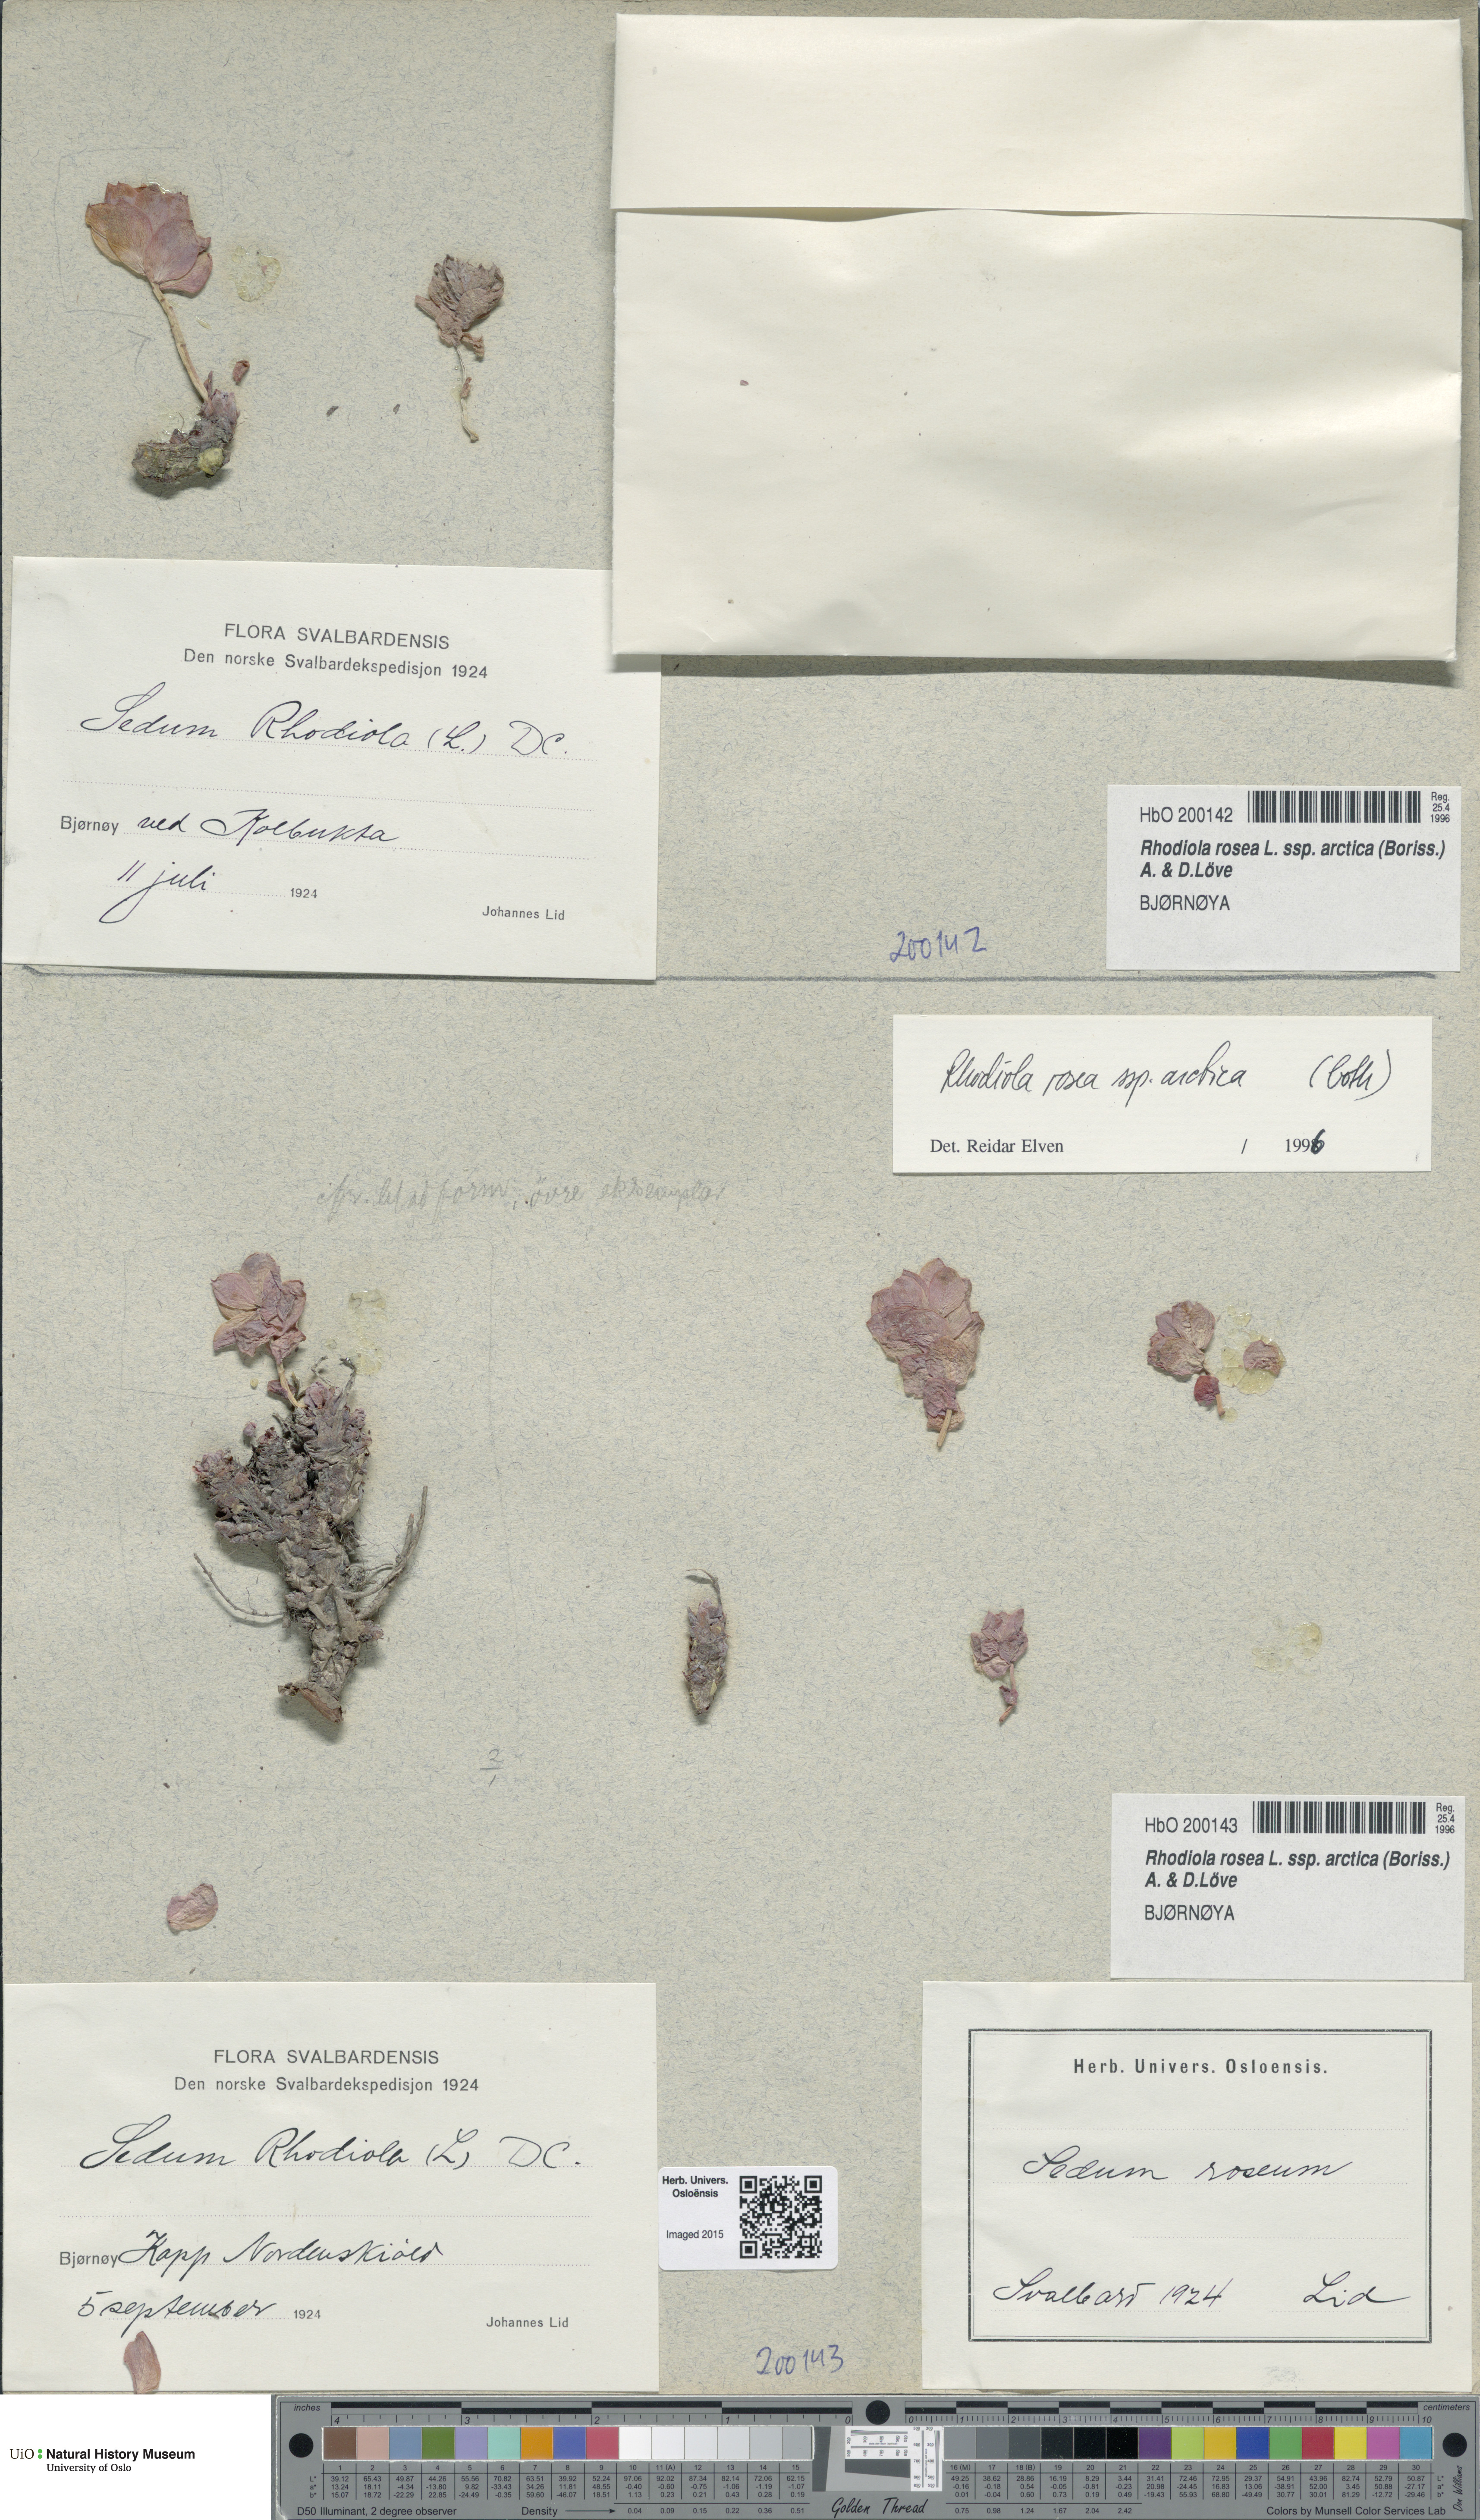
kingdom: Plantae
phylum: Tracheophyta
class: Magnoliopsida
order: Saxifragales
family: Crassulaceae
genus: Rhodiola
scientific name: Rhodiola rosea
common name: Roseroot
